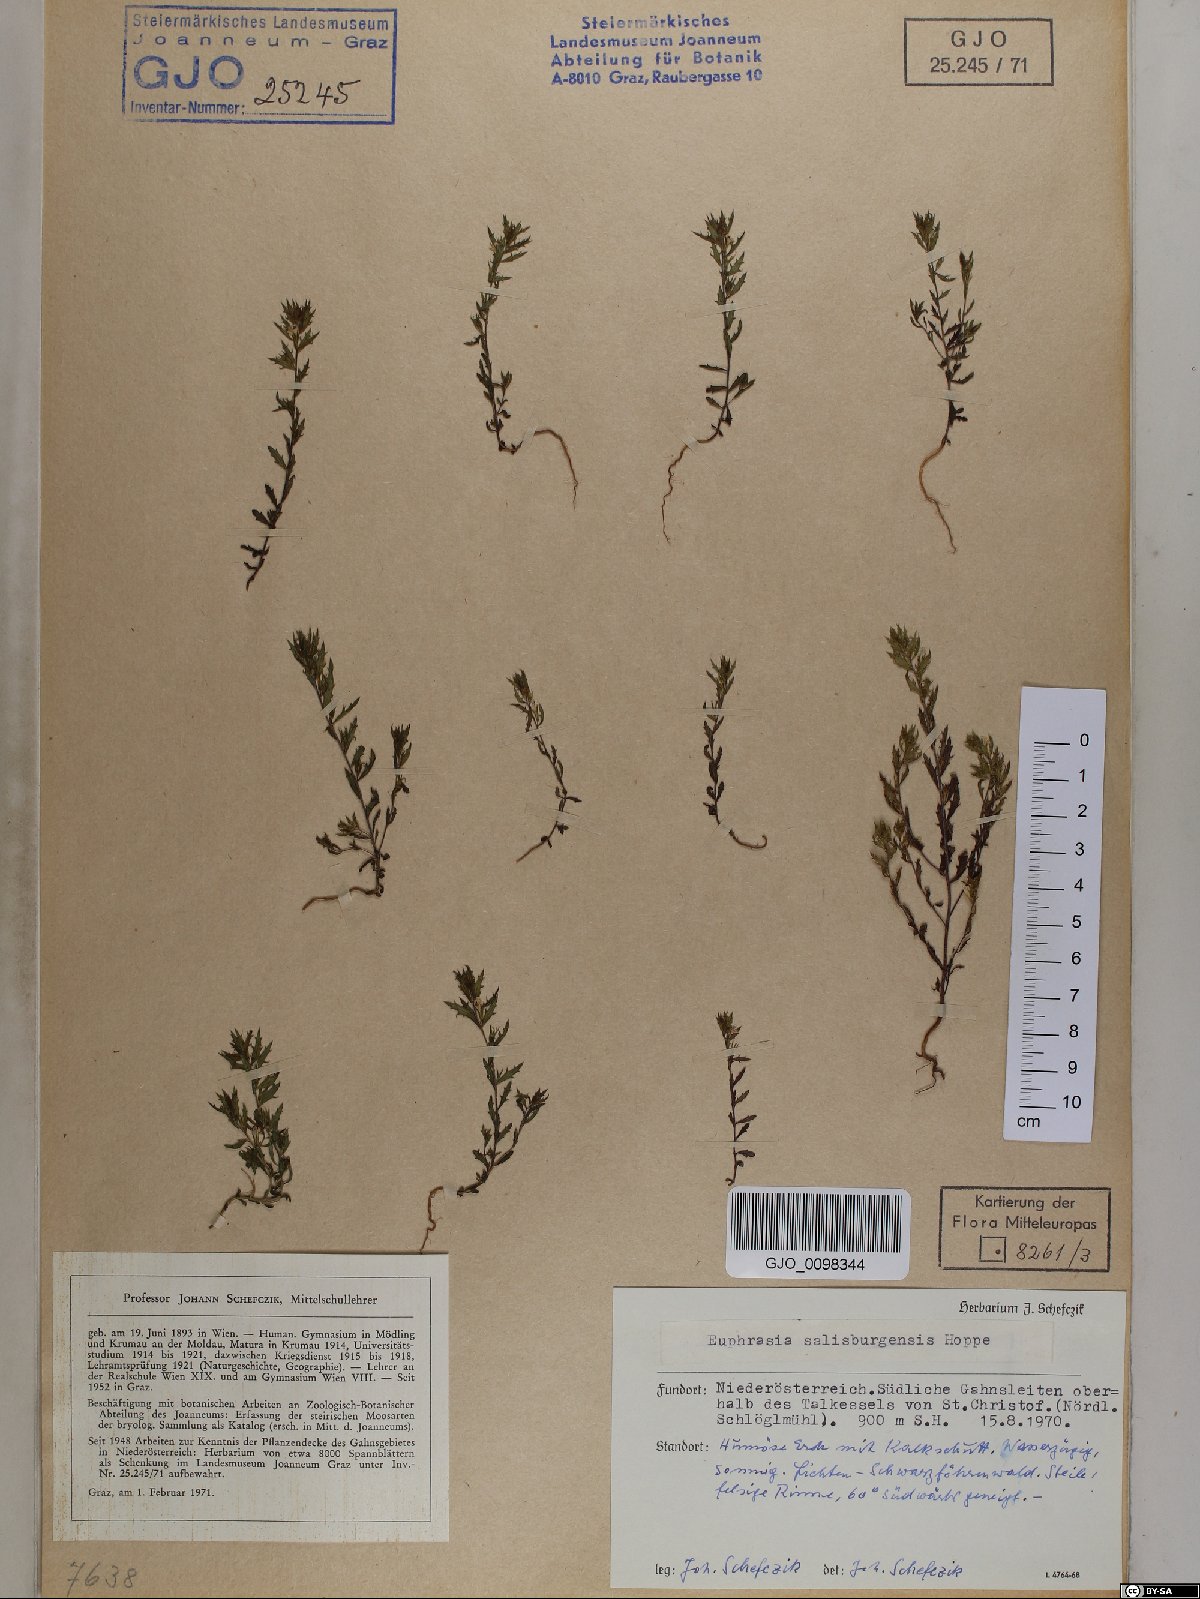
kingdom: Plantae
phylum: Tracheophyta
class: Magnoliopsida
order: Lamiales
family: Orobanchaceae
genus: Euphrasia
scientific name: Euphrasia salisburgensis
